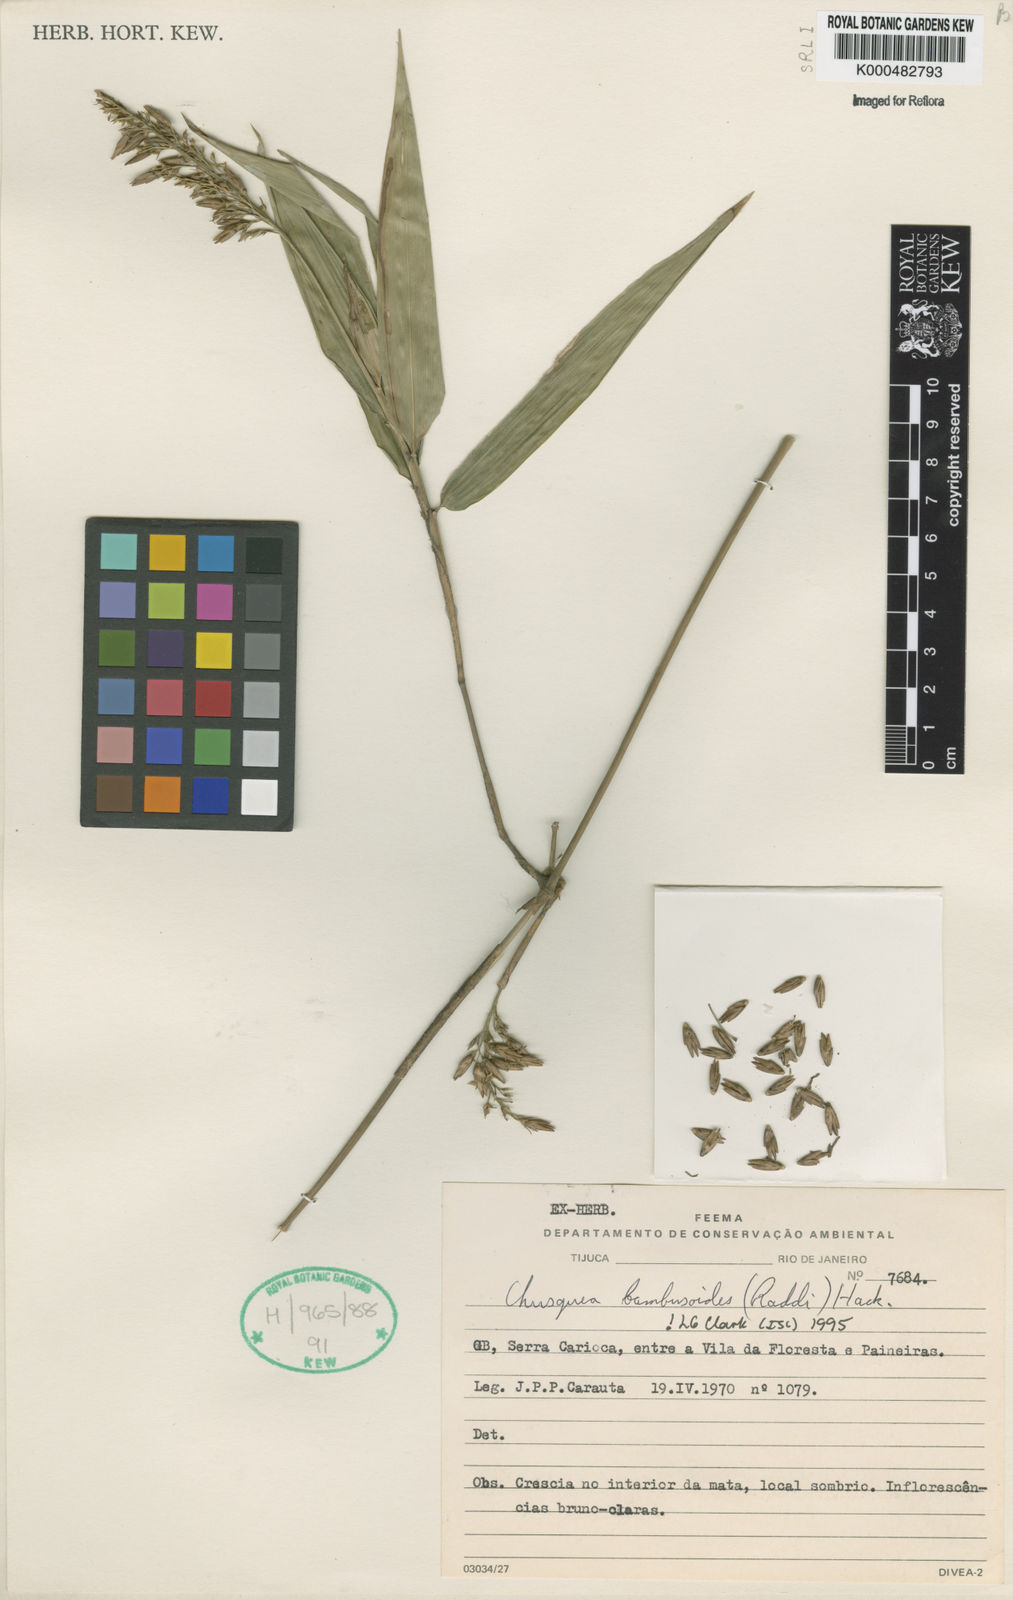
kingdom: Plantae
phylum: Tracheophyta
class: Liliopsida
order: Poales
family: Poaceae
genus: Chusquea
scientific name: Chusquea bambusoides
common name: Brazil scrambling bamboo
